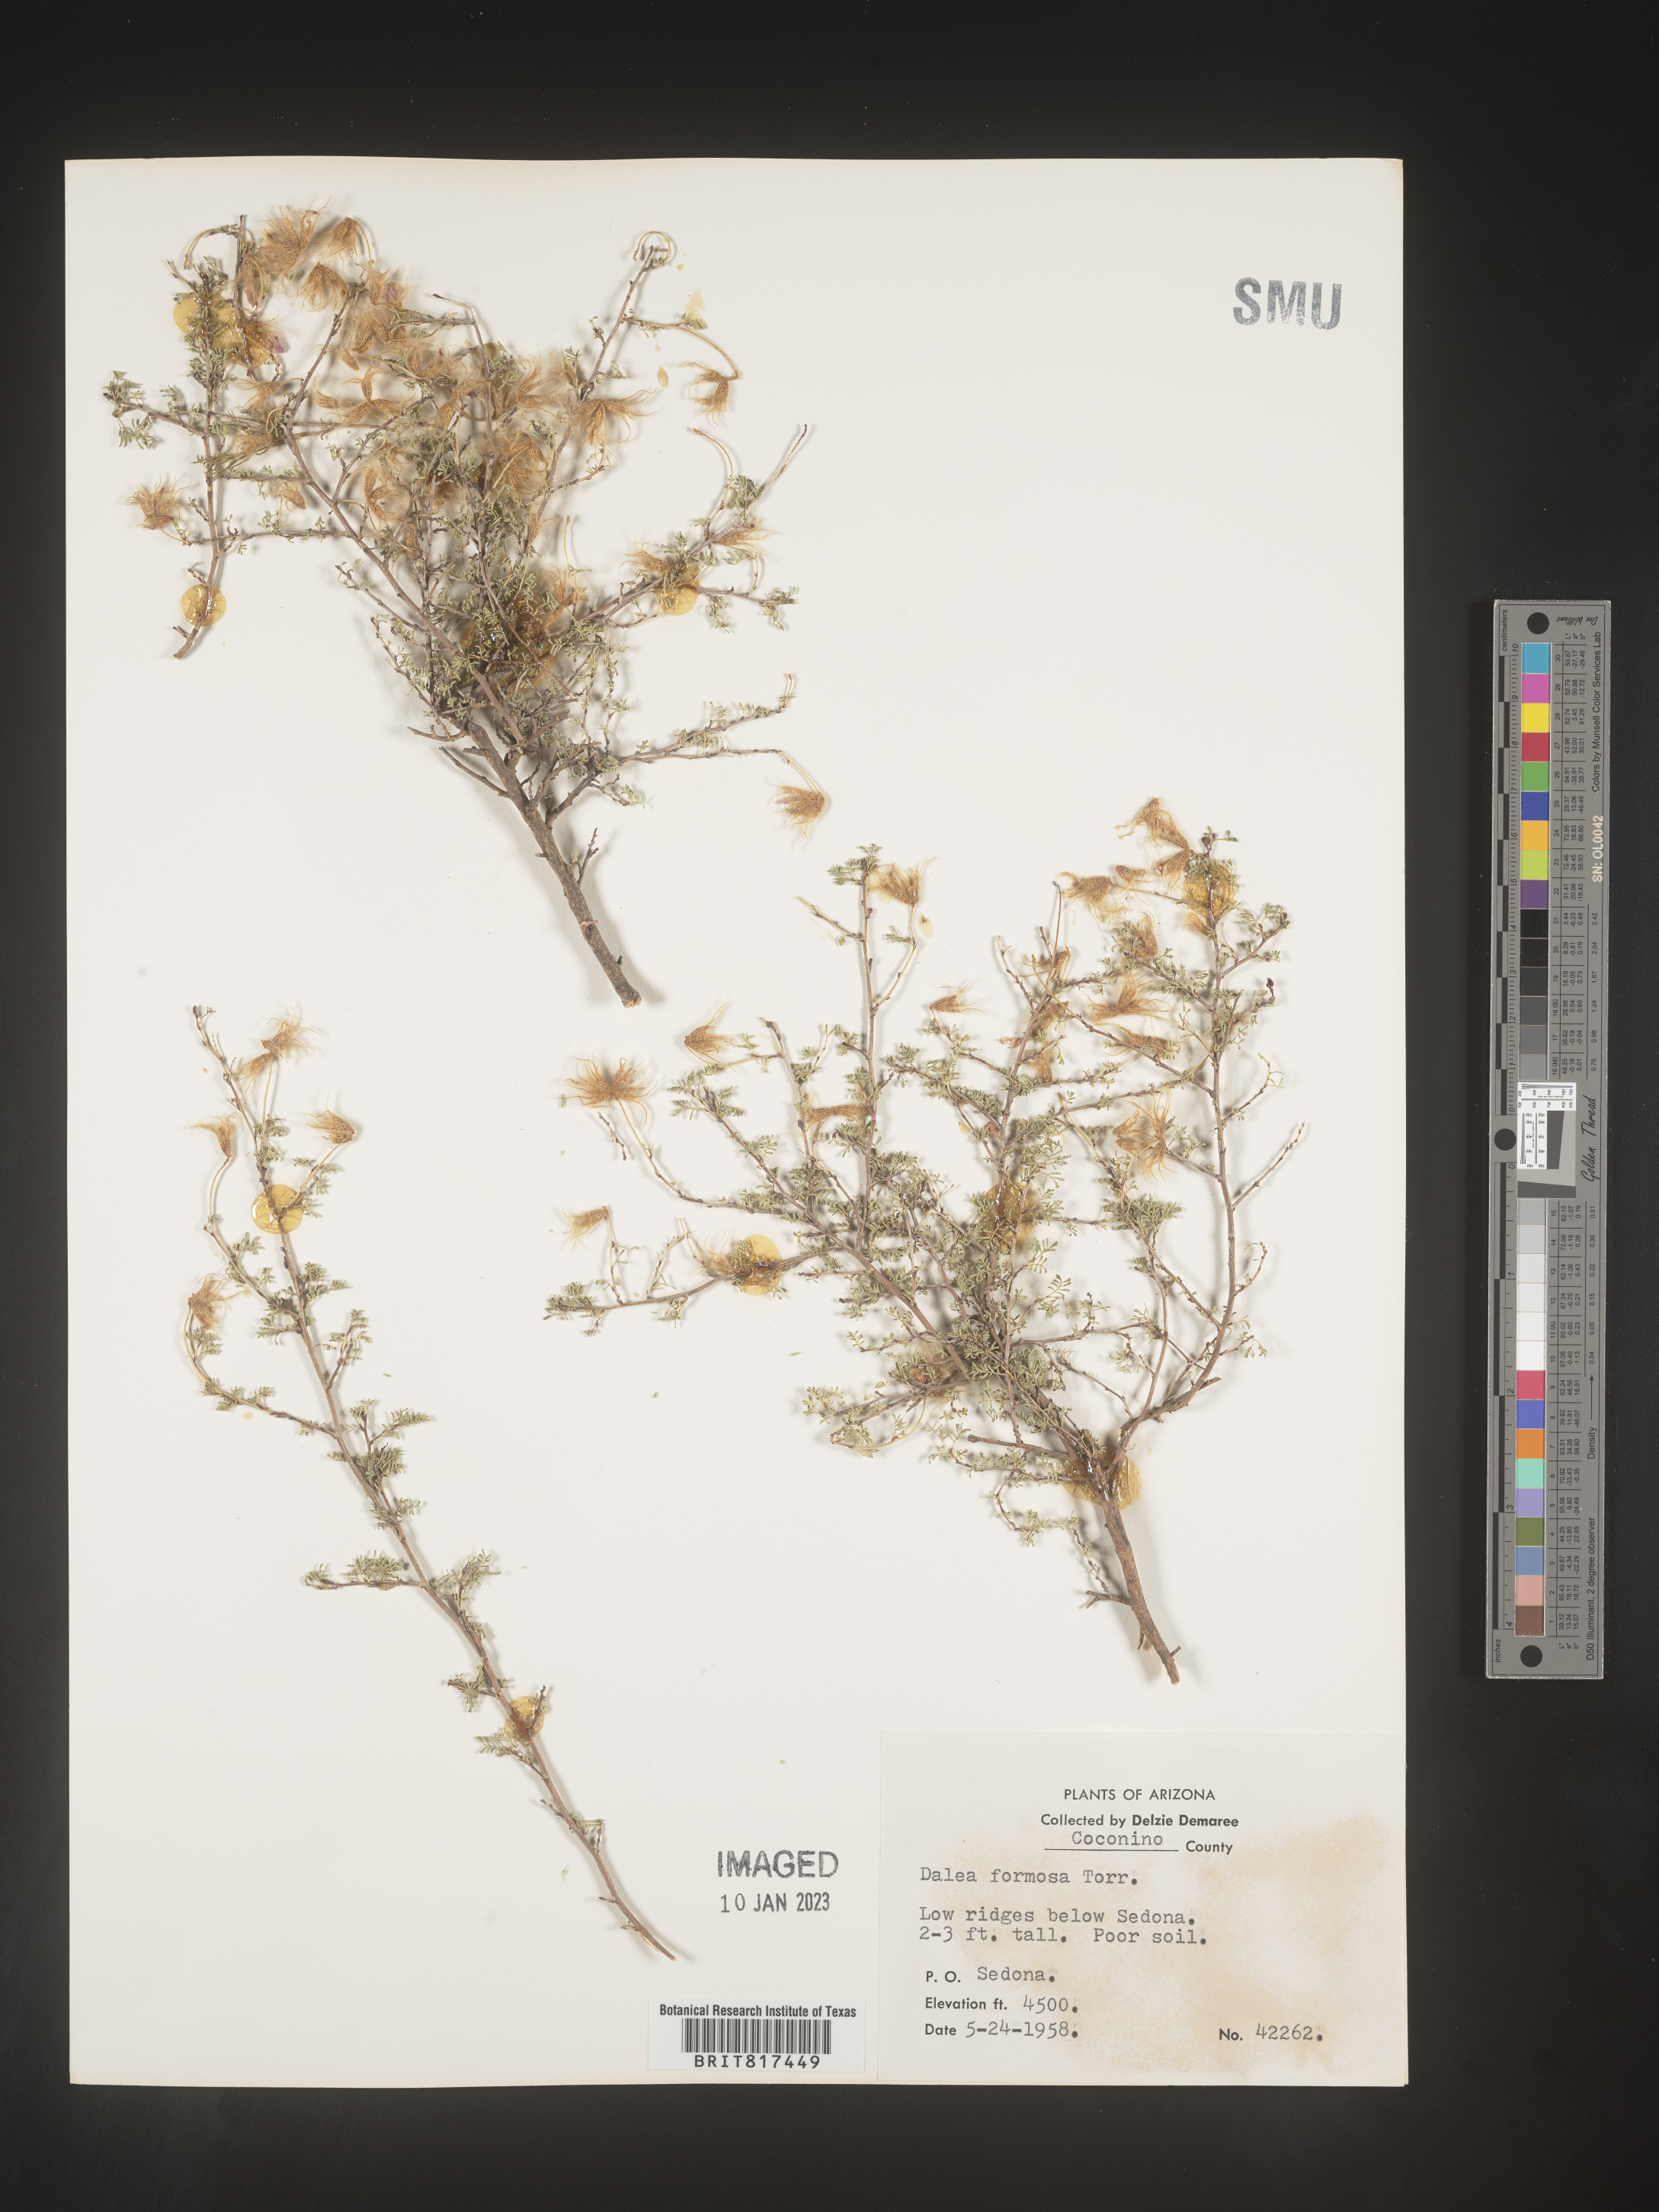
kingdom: Plantae
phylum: Tracheophyta
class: Magnoliopsida
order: Fabales
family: Fabaceae
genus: Dalea
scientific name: Dalea formosa
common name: Feather-plume dalea
